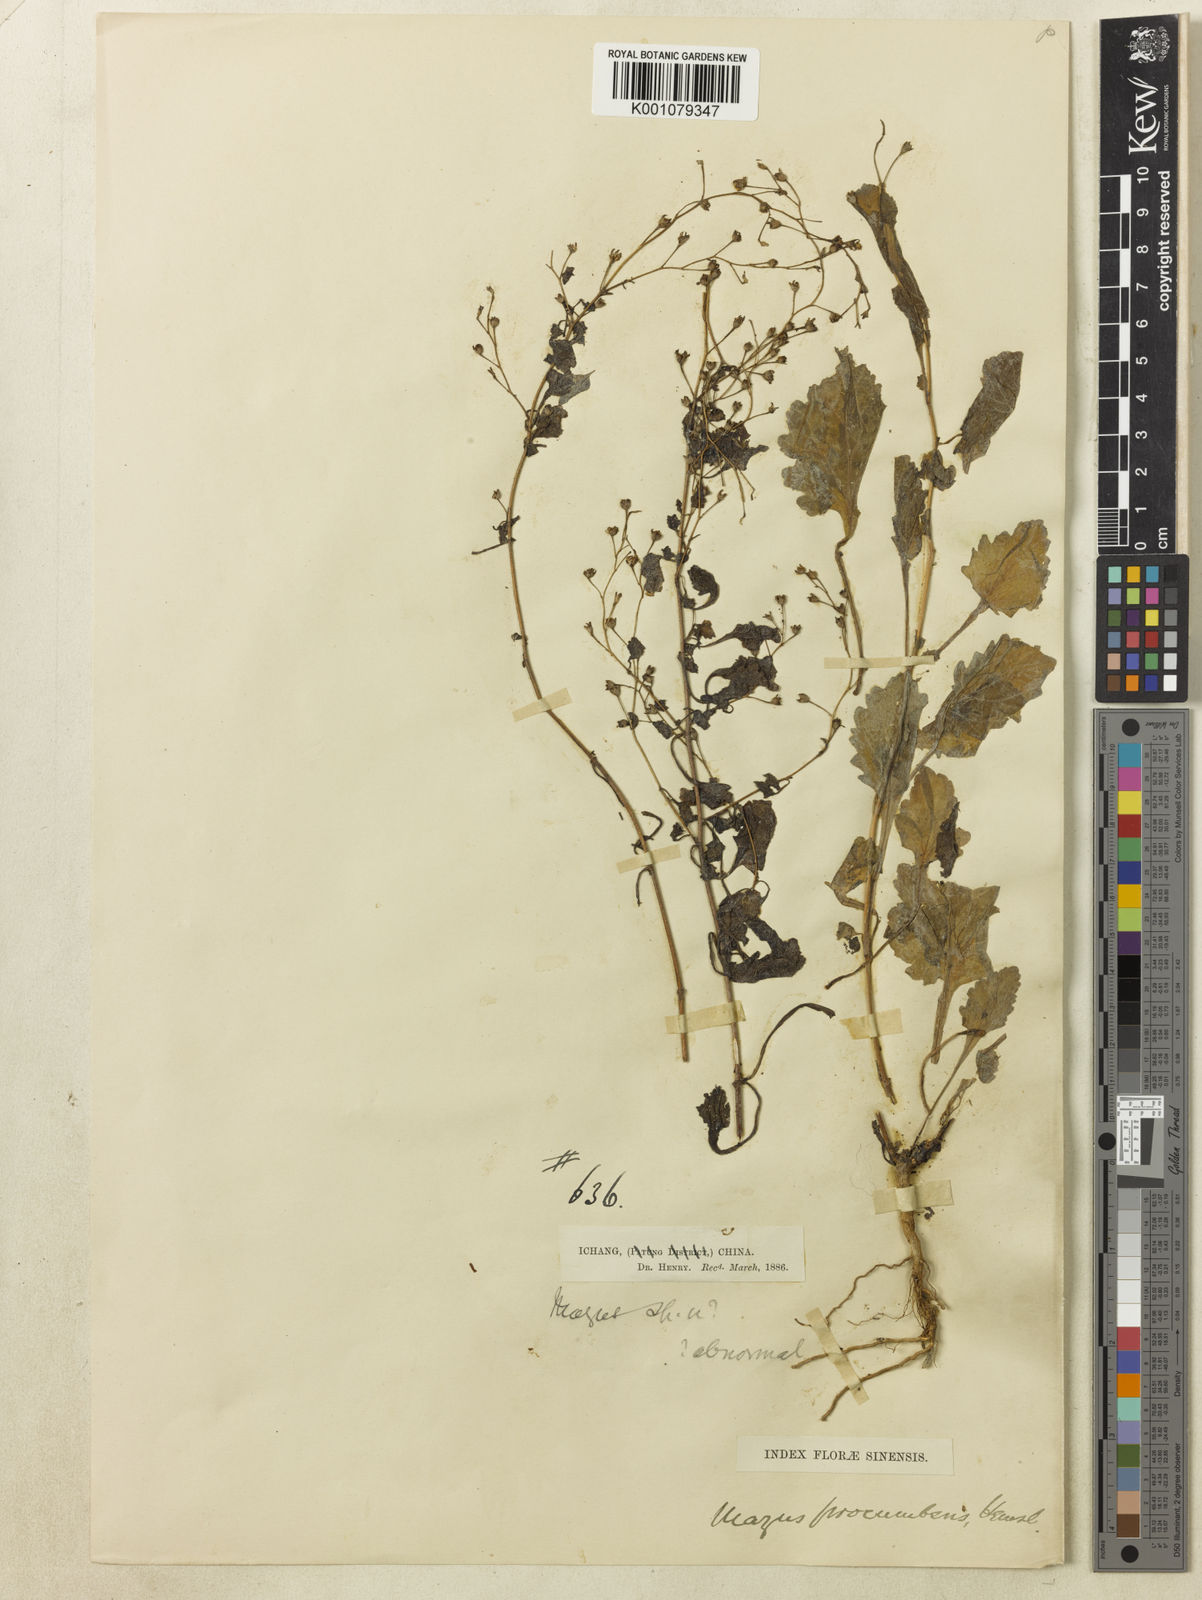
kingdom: Plantae
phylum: Tracheophyta
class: Magnoliopsida
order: Lamiales
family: Mazaceae
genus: Mazus
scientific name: Mazus procumbens
